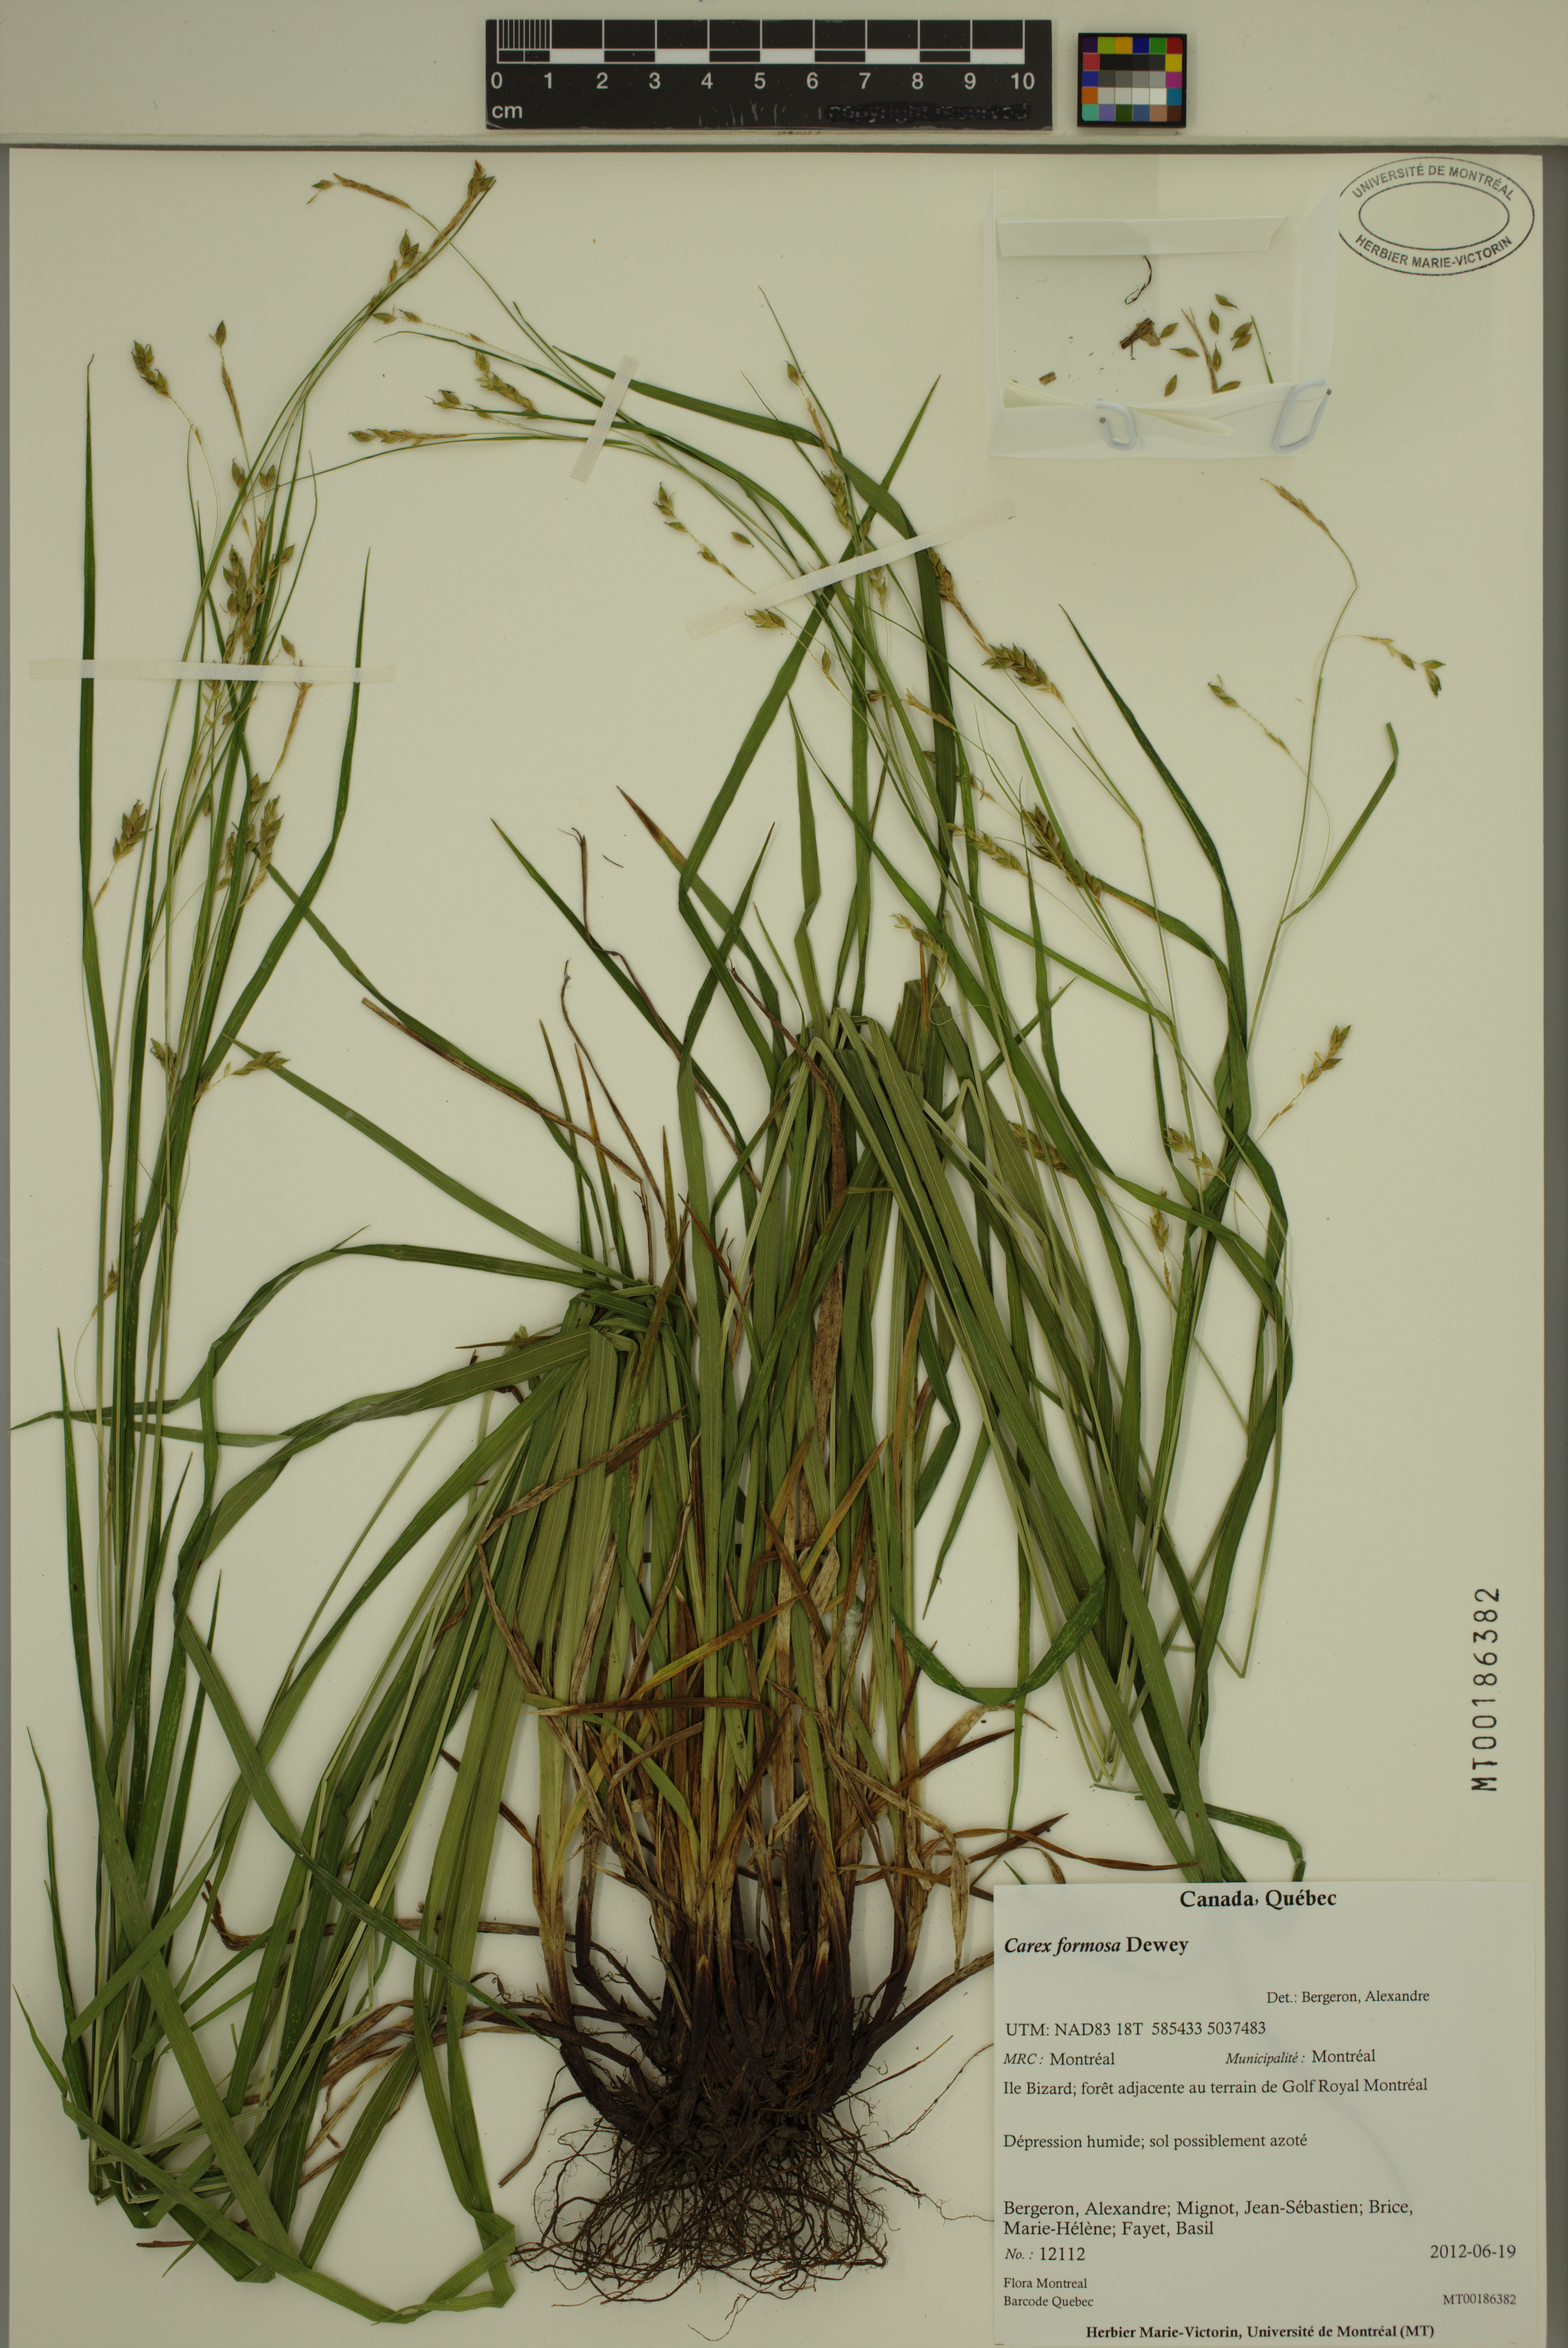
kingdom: Plantae
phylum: Tracheophyta
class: Liliopsida
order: Poales
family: Cyperaceae
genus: Carex
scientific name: Carex formosa
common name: Awnless graceful sedge
